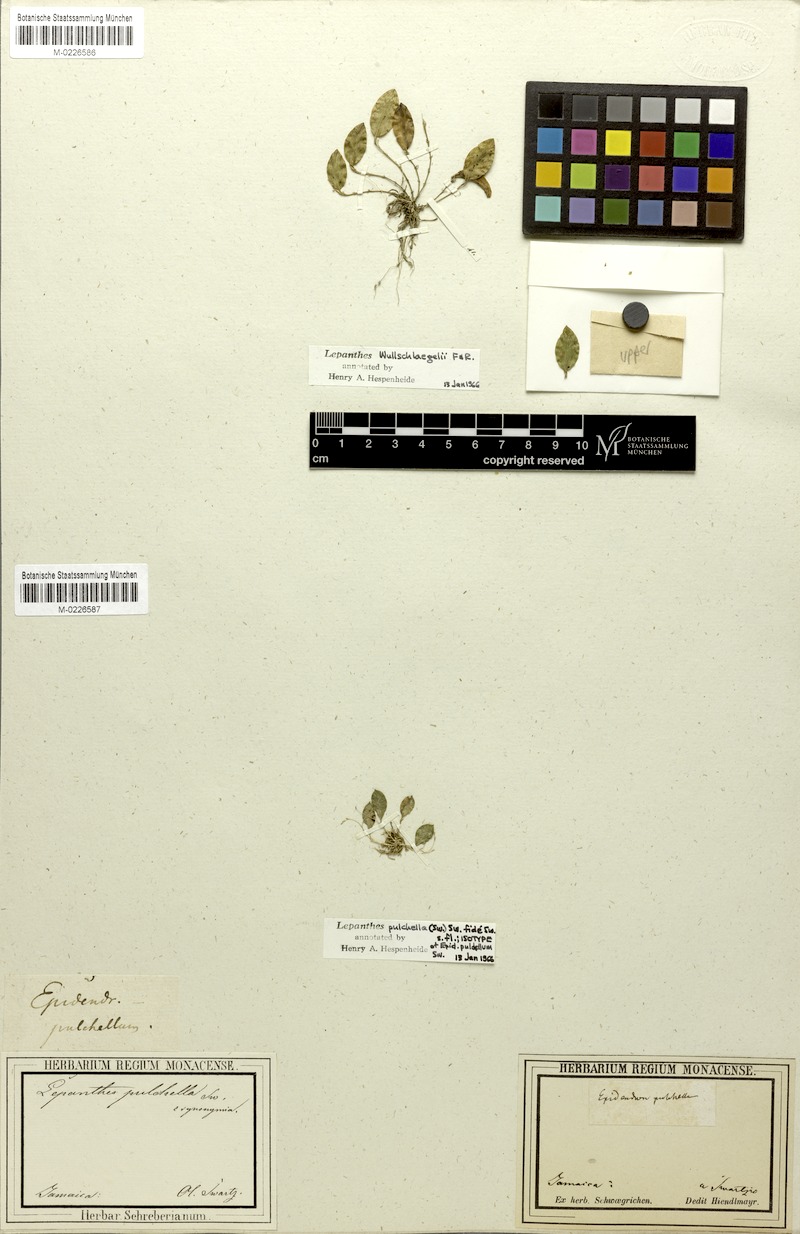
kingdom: Plantae
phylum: Tracheophyta
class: Liliopsida
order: Asparagales
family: Orchidaceae
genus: Lepanthes
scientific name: Lepanthes wullschlaegelii
